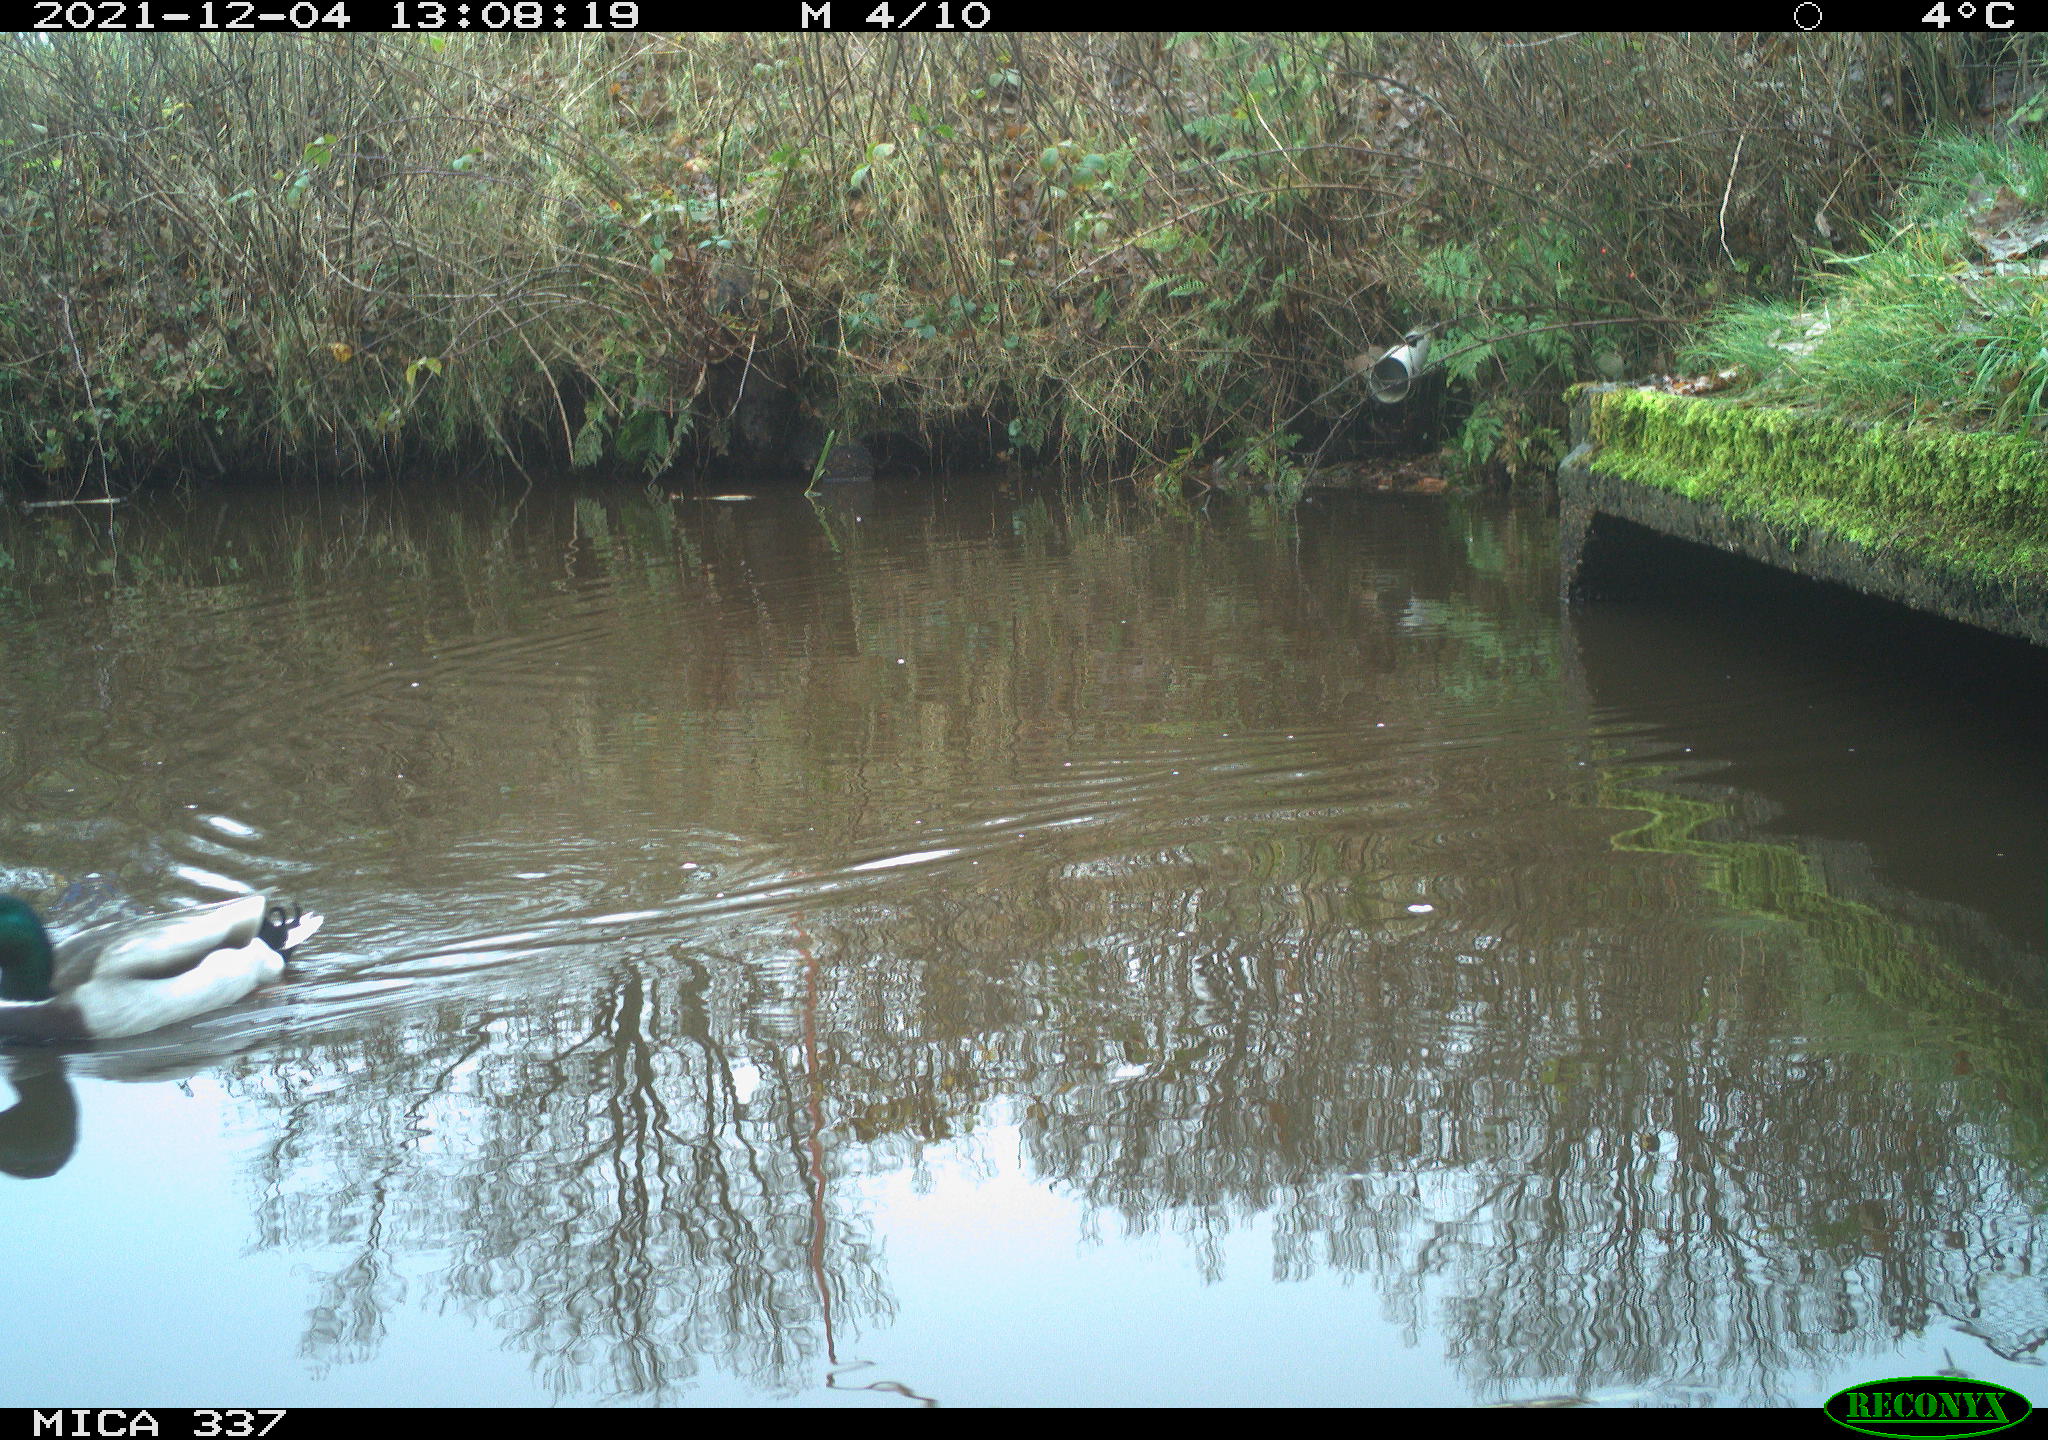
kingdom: Animalia
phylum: Chordata
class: Aves
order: Anseriformes
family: Anatidae
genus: Anas
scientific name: Anas platyrhynchos
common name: Mallard
